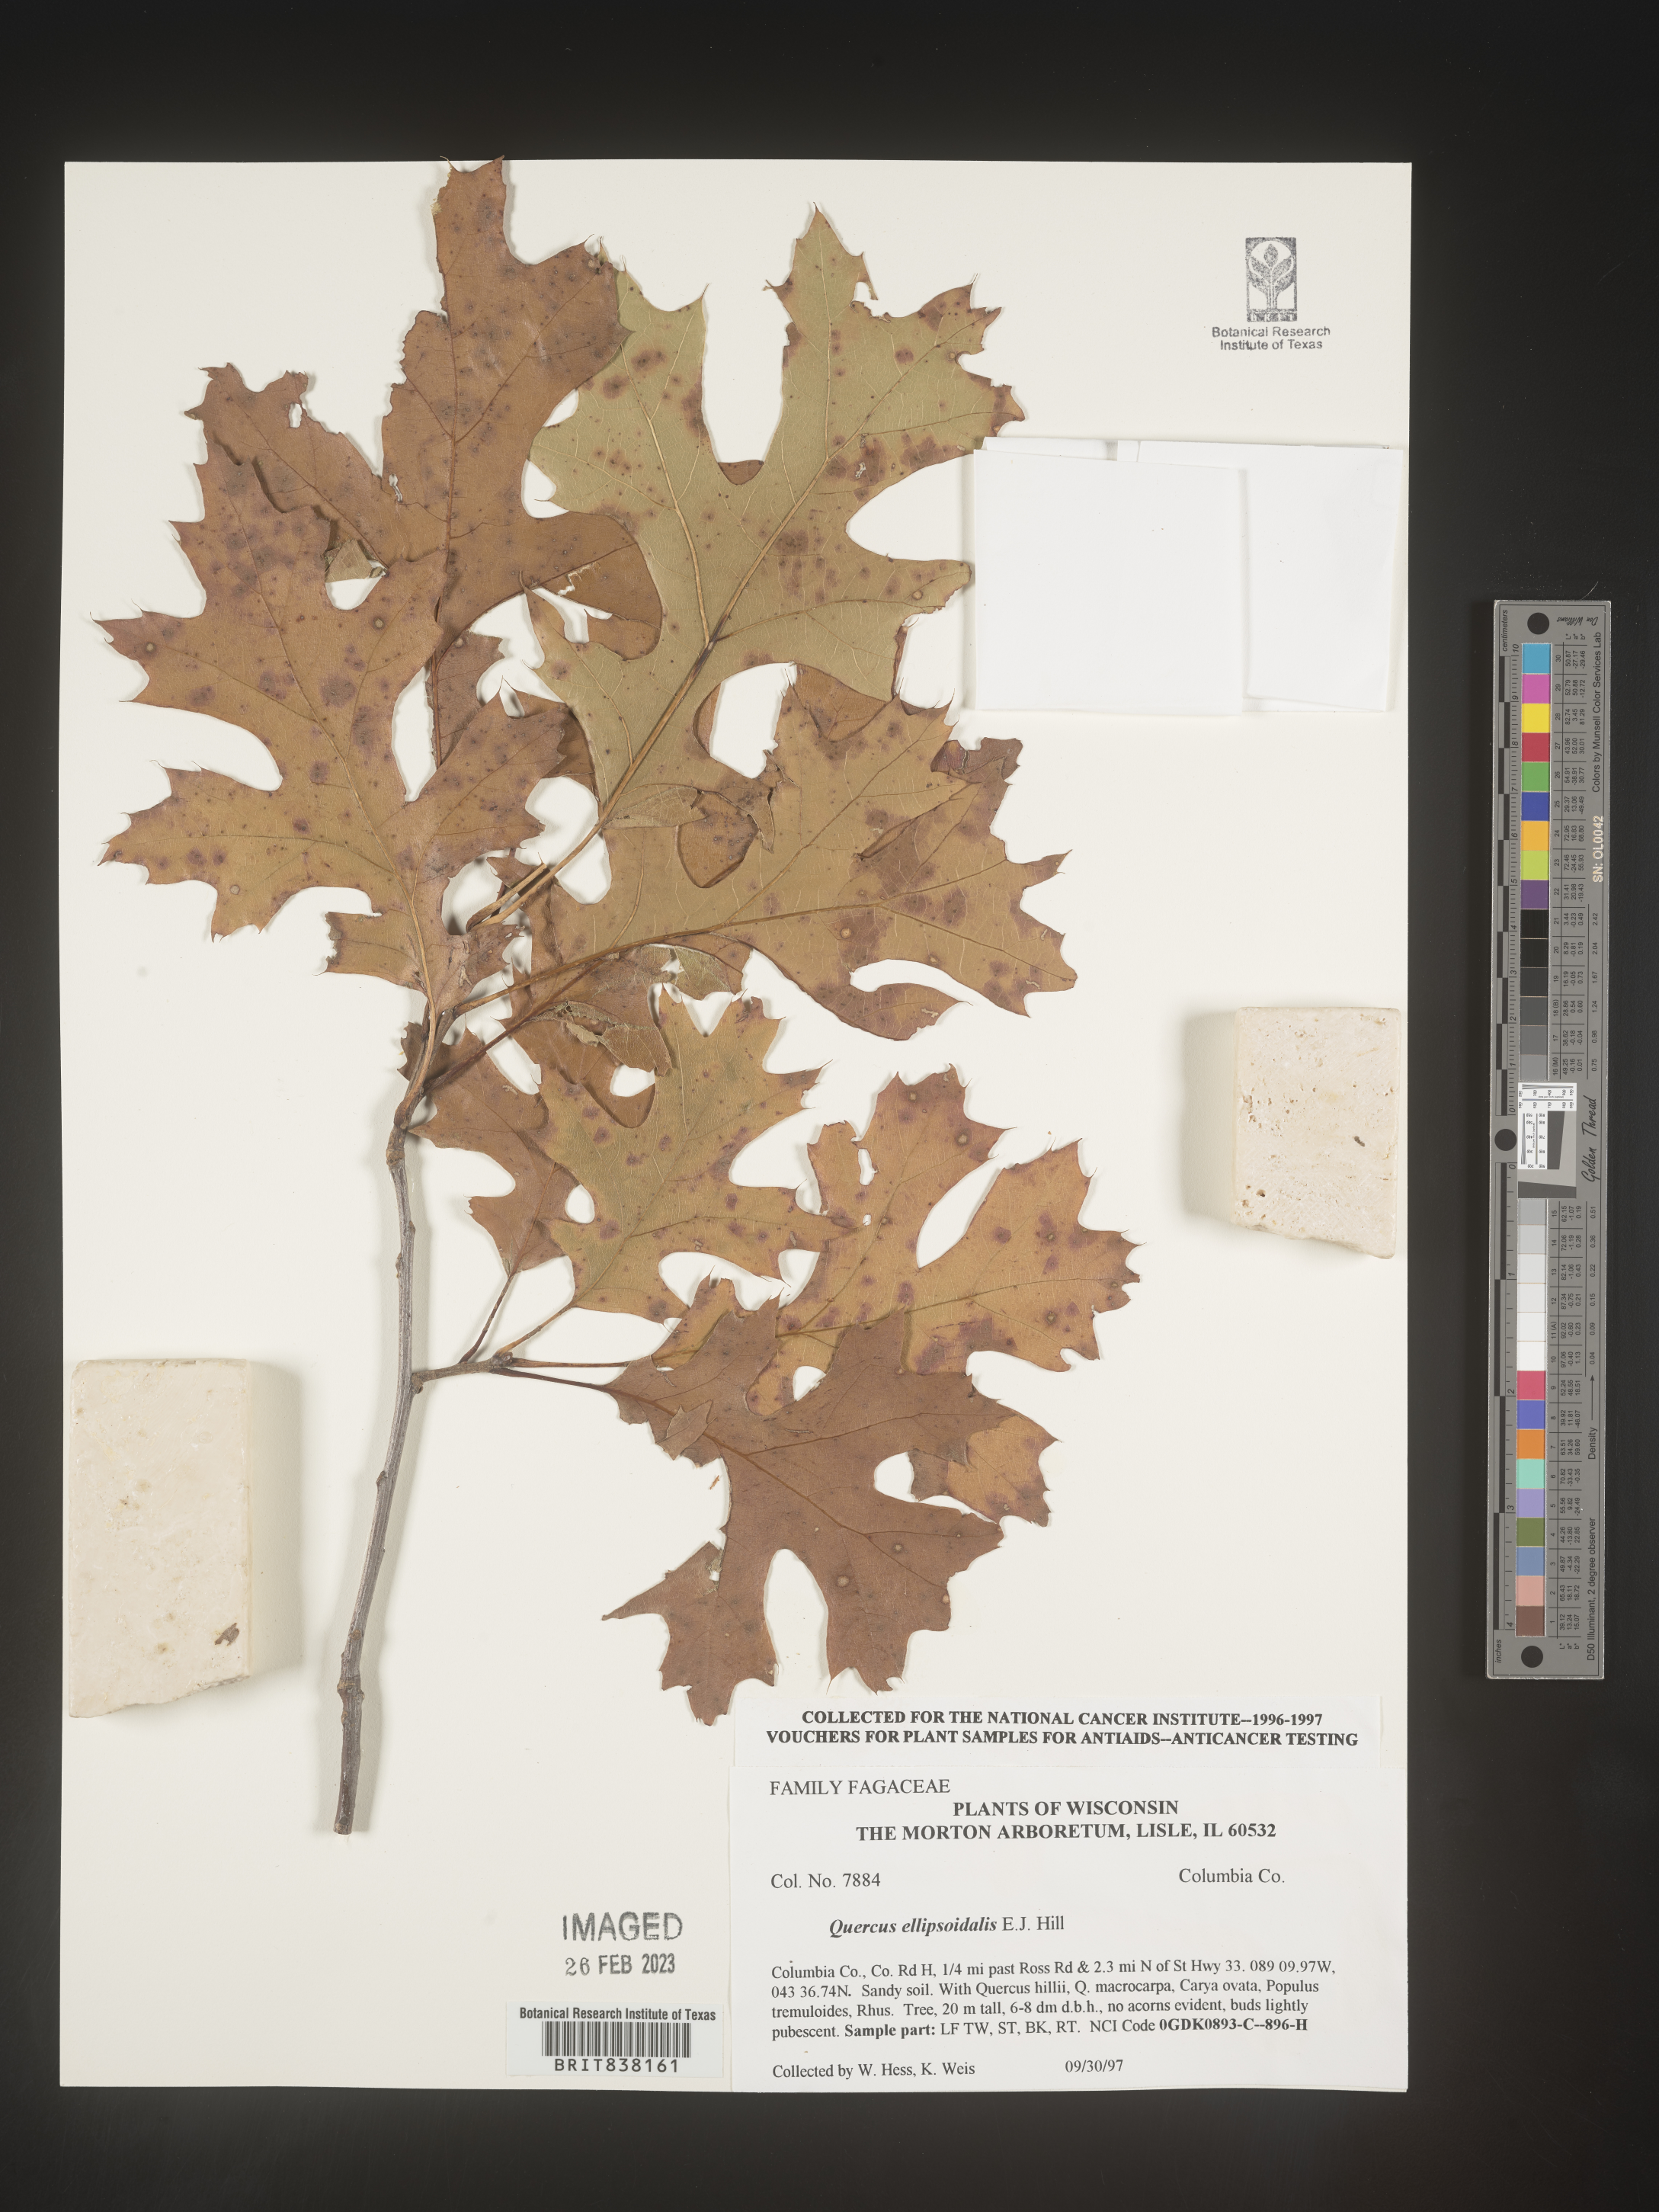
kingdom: Plantae
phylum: Tracheophyta
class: Magnoliopsida
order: Fagales
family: Fagaceae
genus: Quercus
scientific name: Quercus ellipsoidalis
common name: Hill's oak
